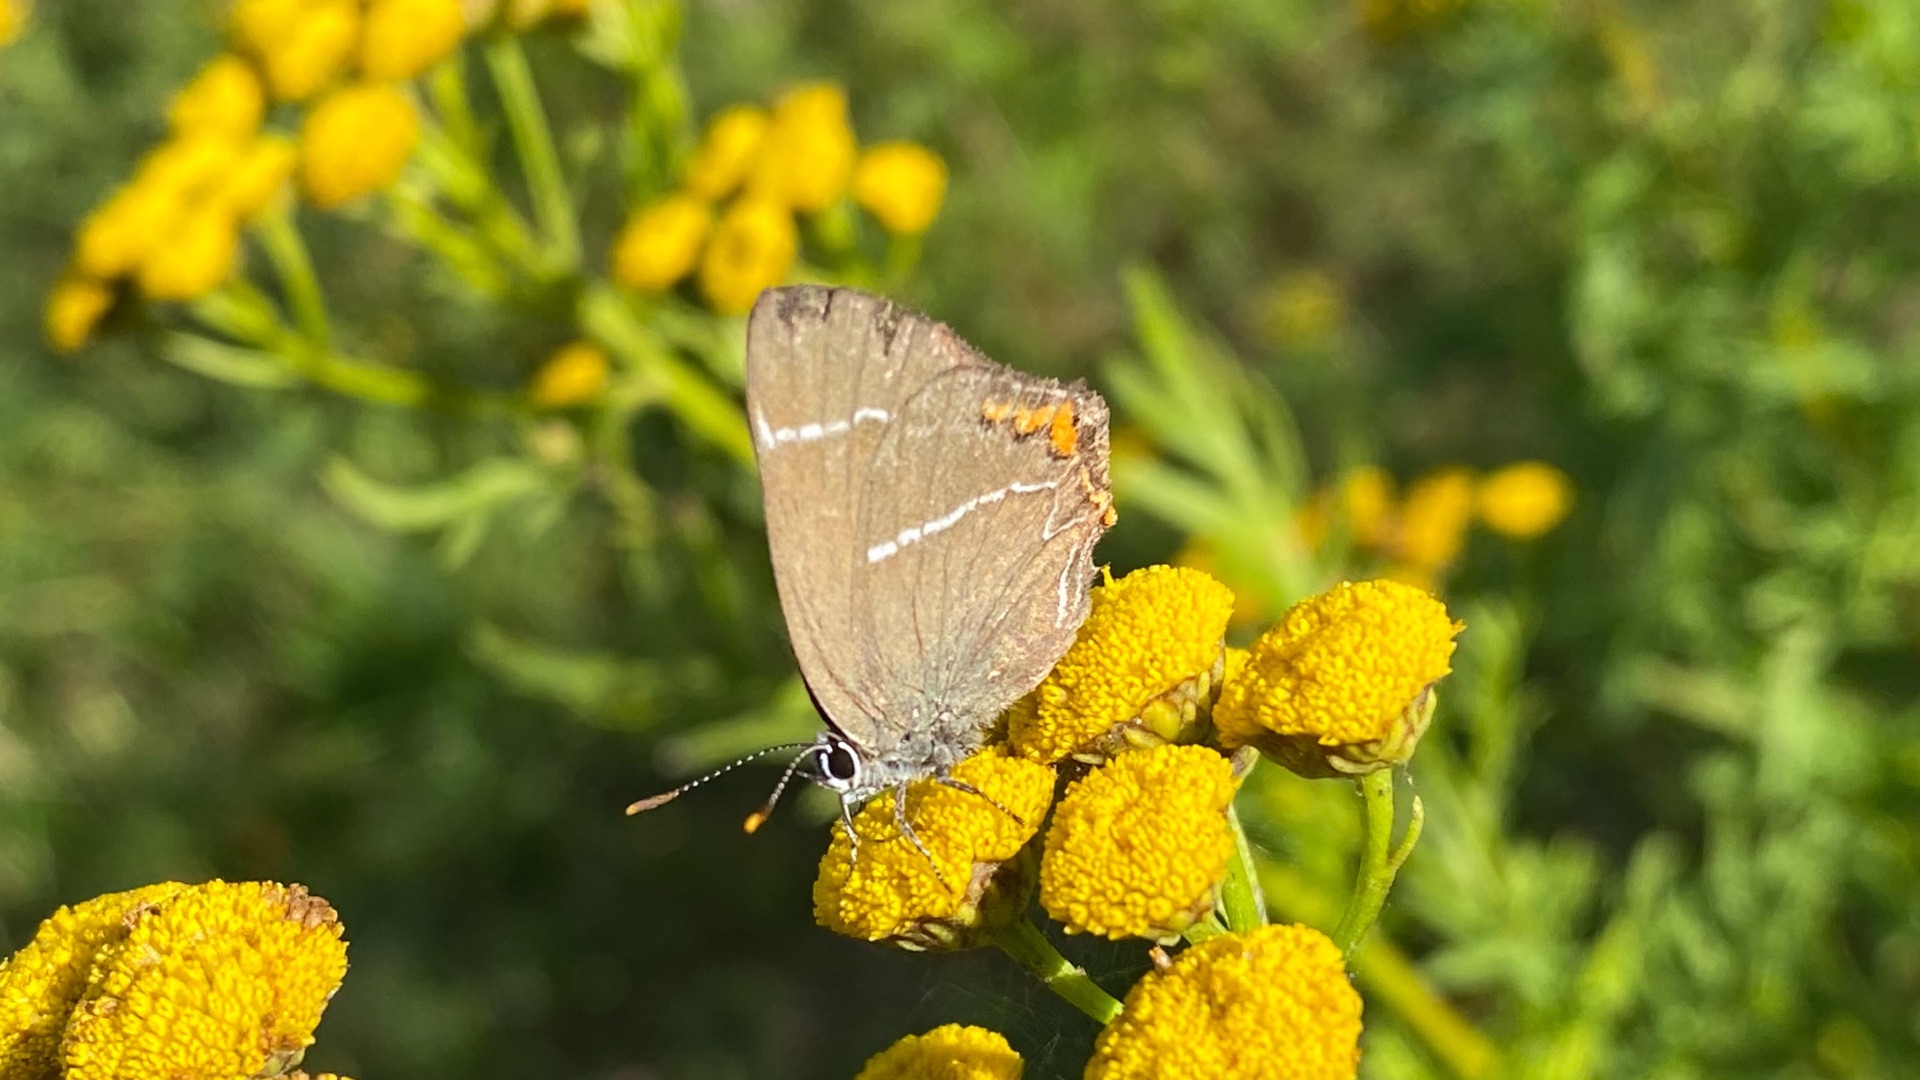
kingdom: Animalia
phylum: Arthropoda
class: Insecta
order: Lepidoptera
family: Lycaenidae
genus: Satyrium
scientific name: Satyrium w-album
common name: Det hvide W
